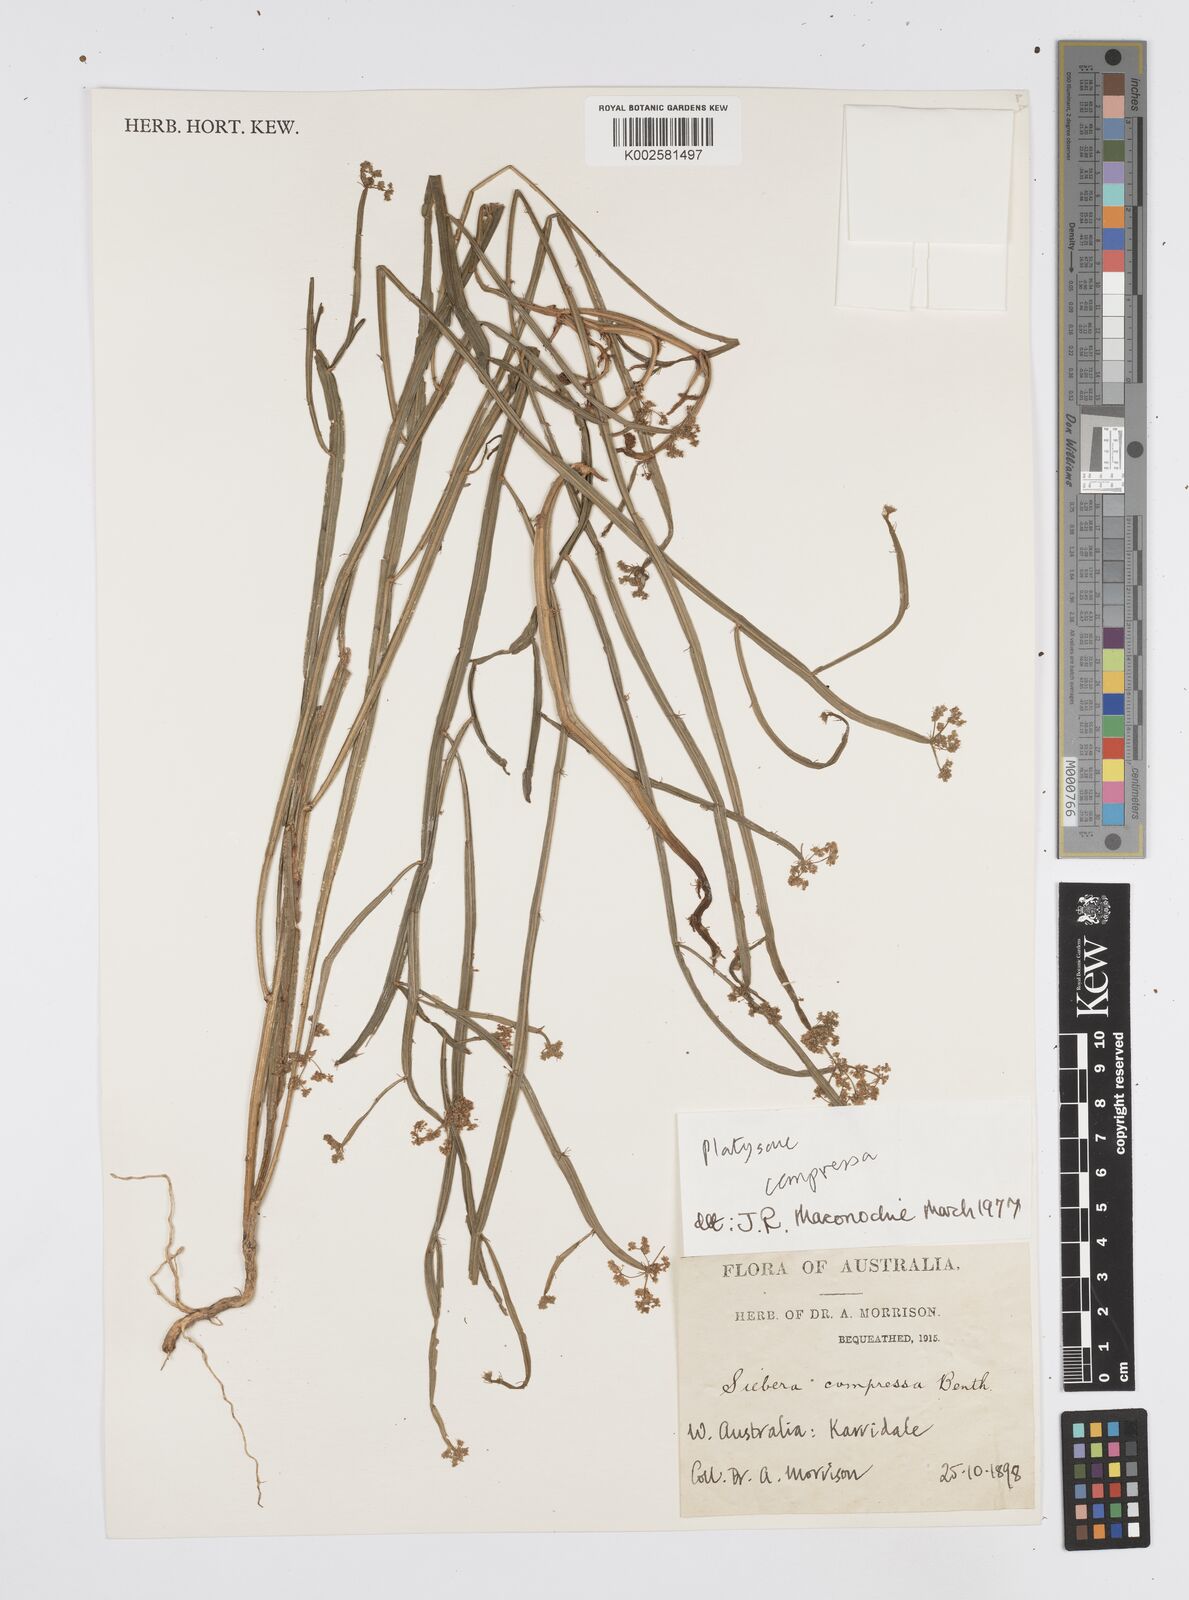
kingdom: Plantae
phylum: Tracheophyta
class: Magnoliopsida
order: Apiales
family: Apiaceae
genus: Centella
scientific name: Centella
